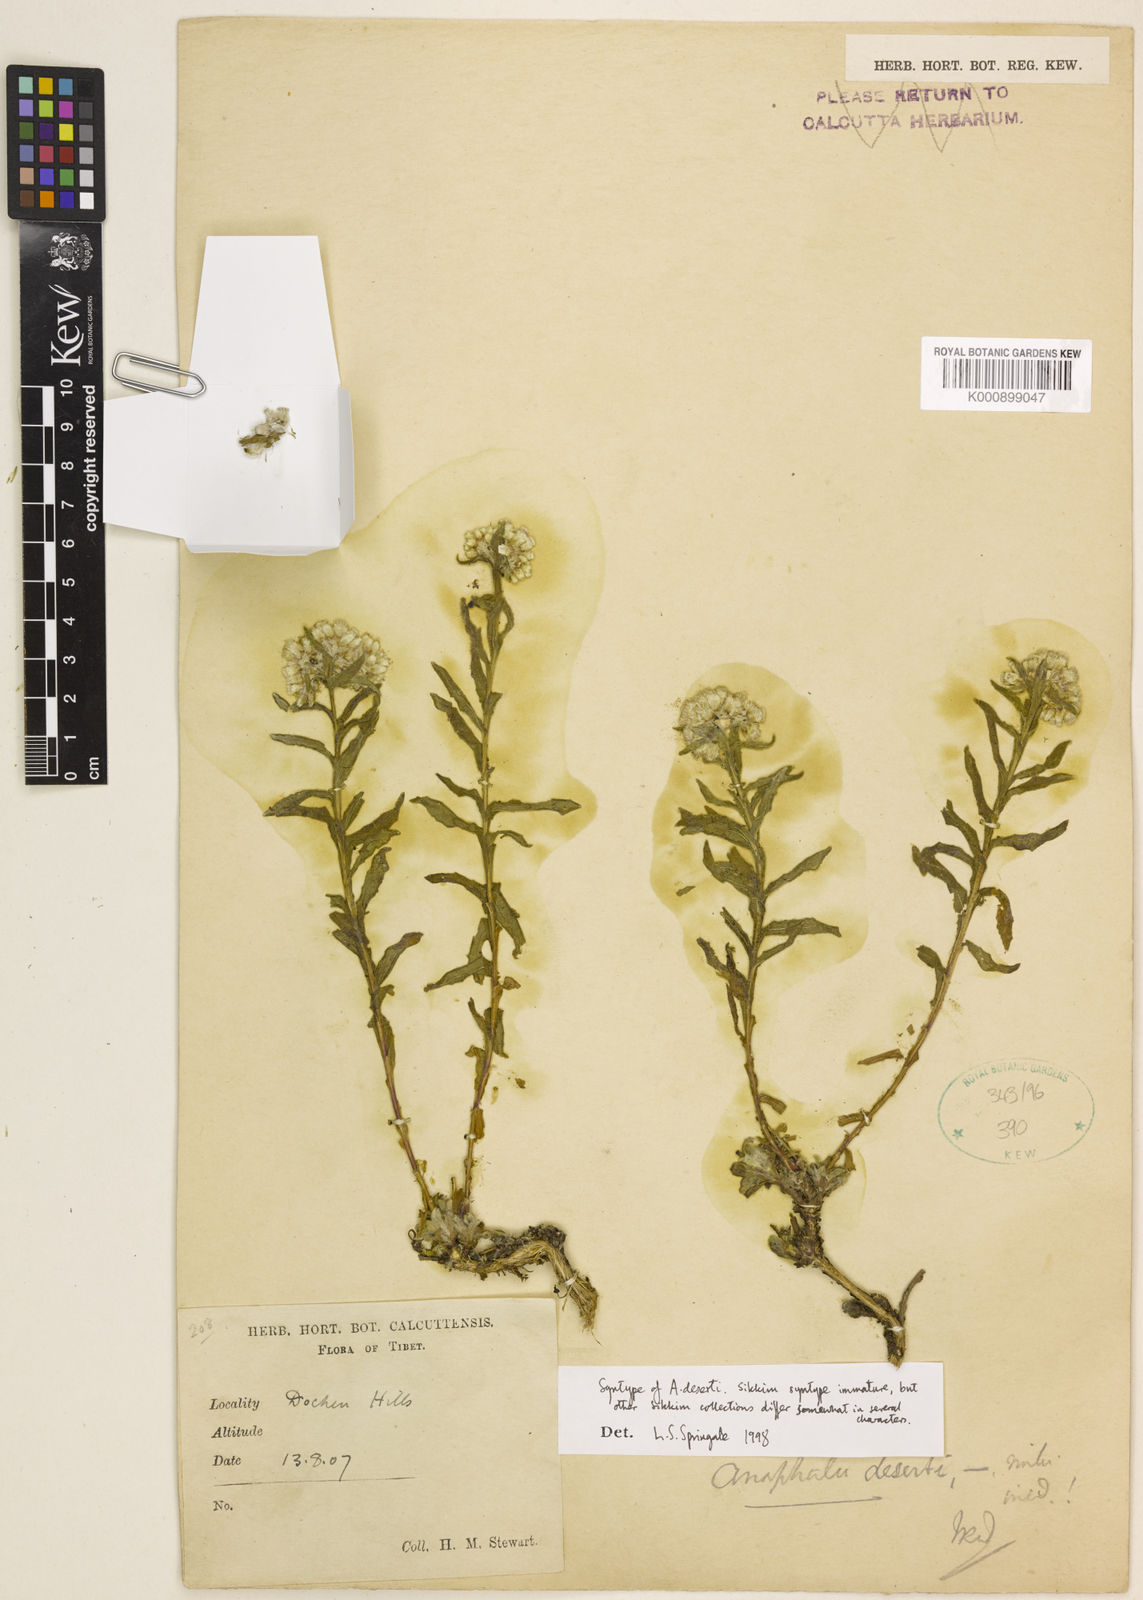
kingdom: Plantae
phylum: Tracheophyta
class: Magnoliopsida
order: Asterales
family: Asteraceae
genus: Anaphalis
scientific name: Anaphalis deserti
